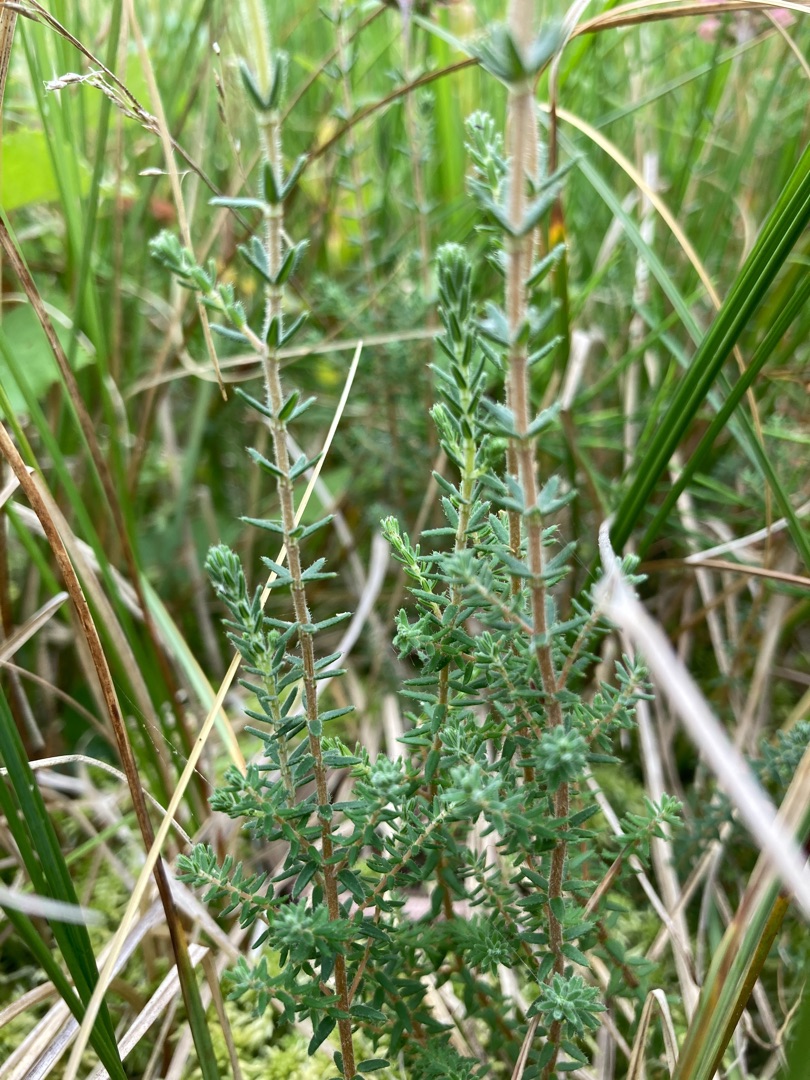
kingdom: Plantae
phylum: Tracheophyta
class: Magnoliopsida
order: Ericales
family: Ericaceae
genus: Erica
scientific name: Erica tetralix
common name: Klokkelyng
